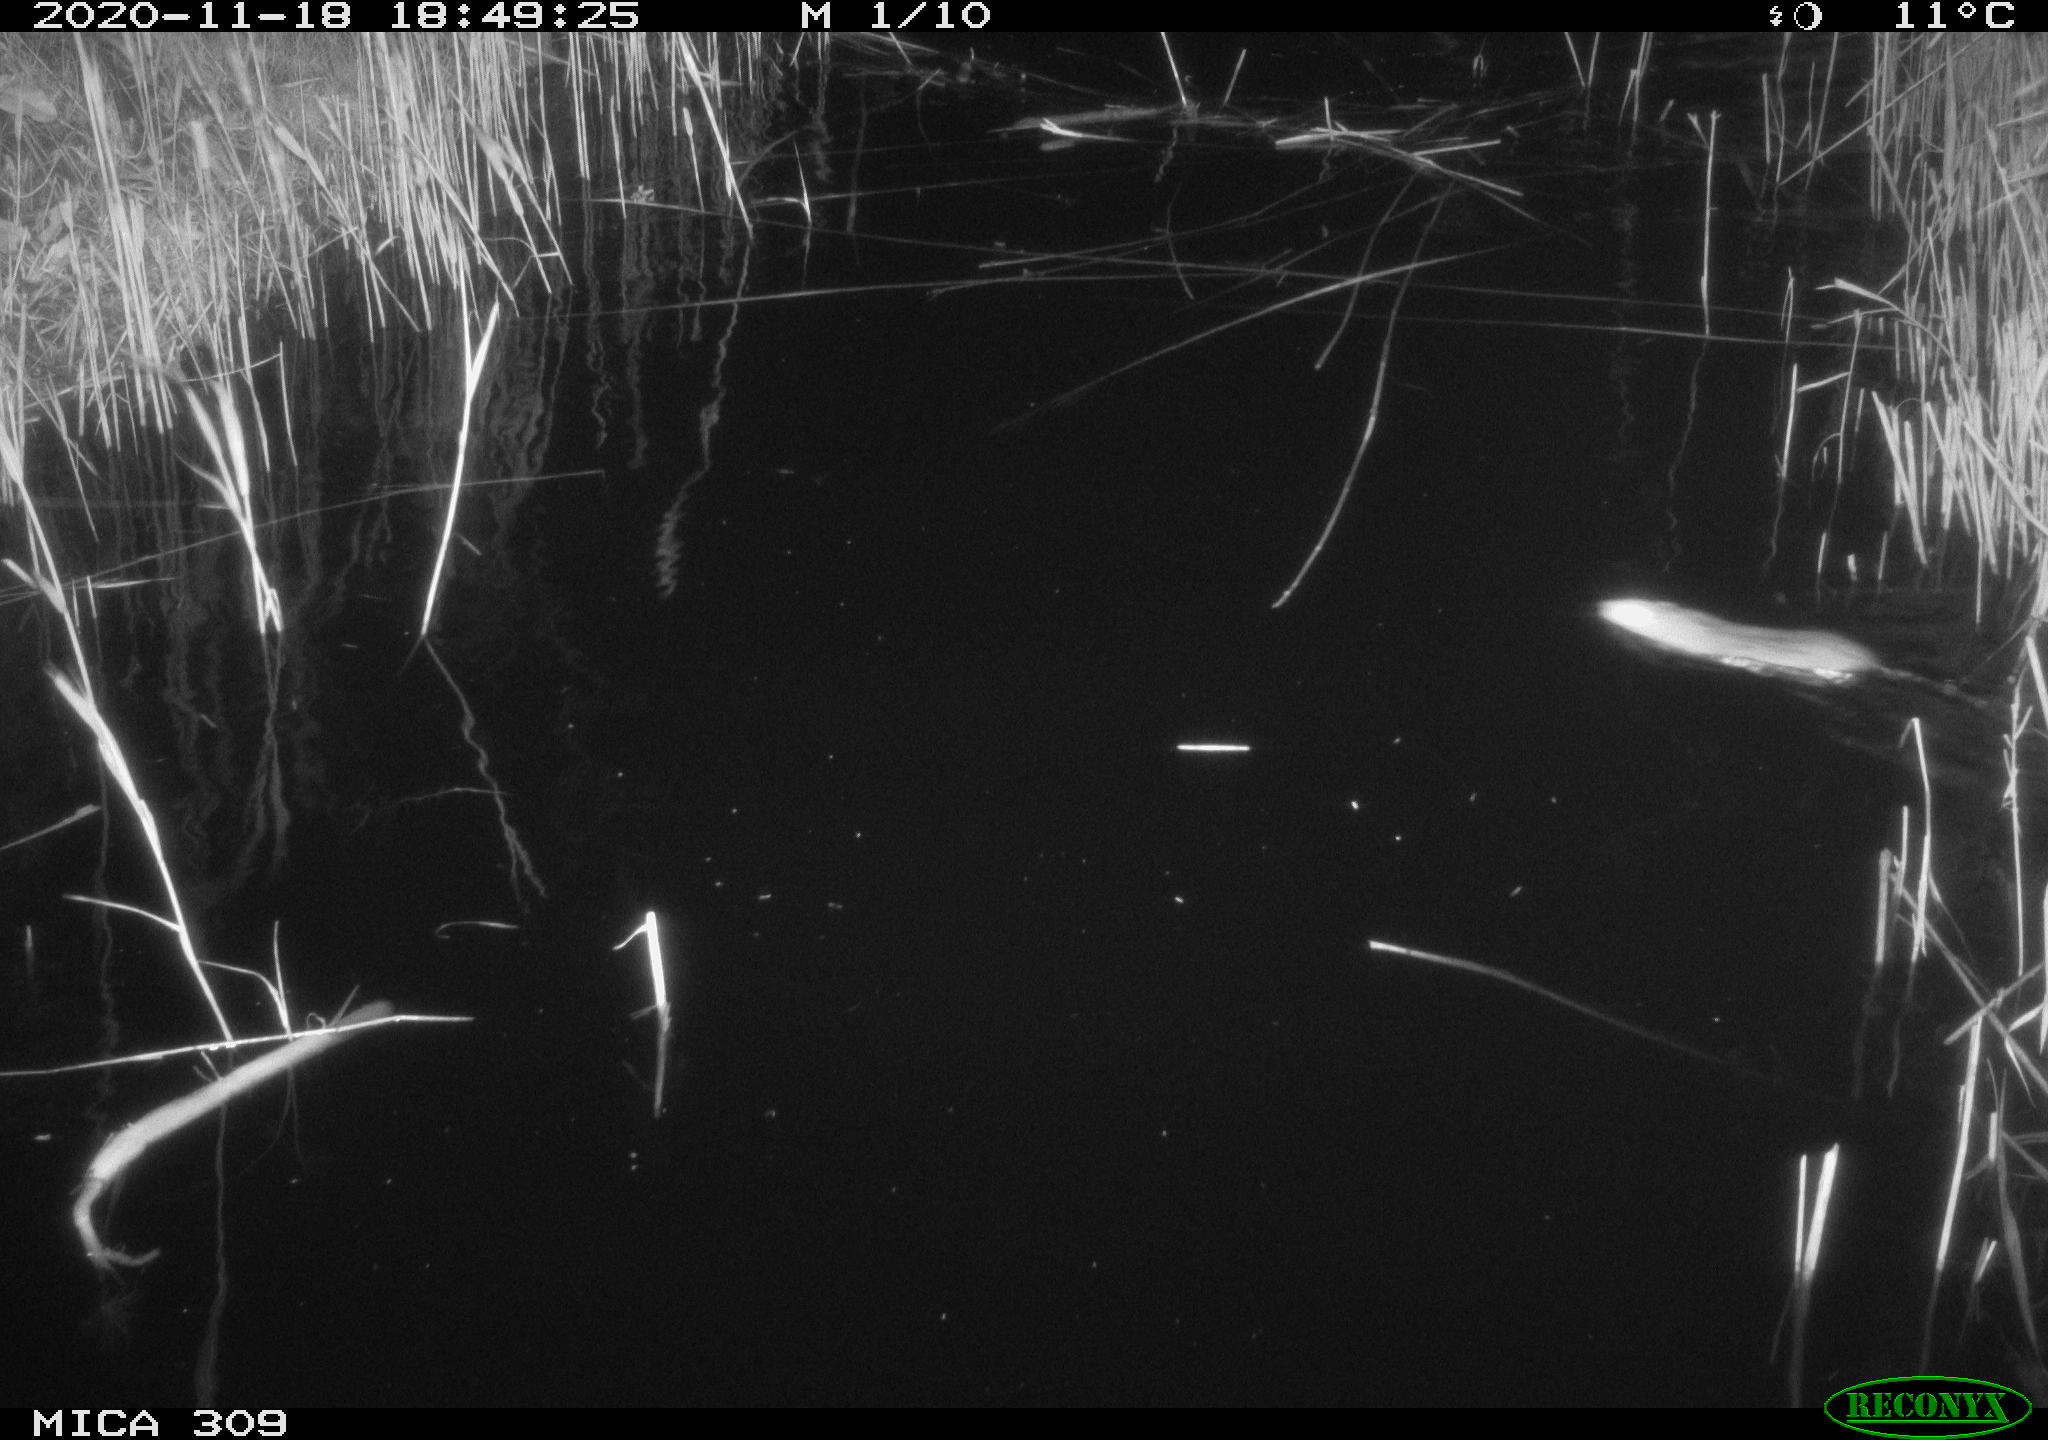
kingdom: Animalia
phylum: Chordata
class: Mammalia
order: Rodentia
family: Muridae
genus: Rattus
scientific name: Rattus norvegicus
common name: Brown rat
